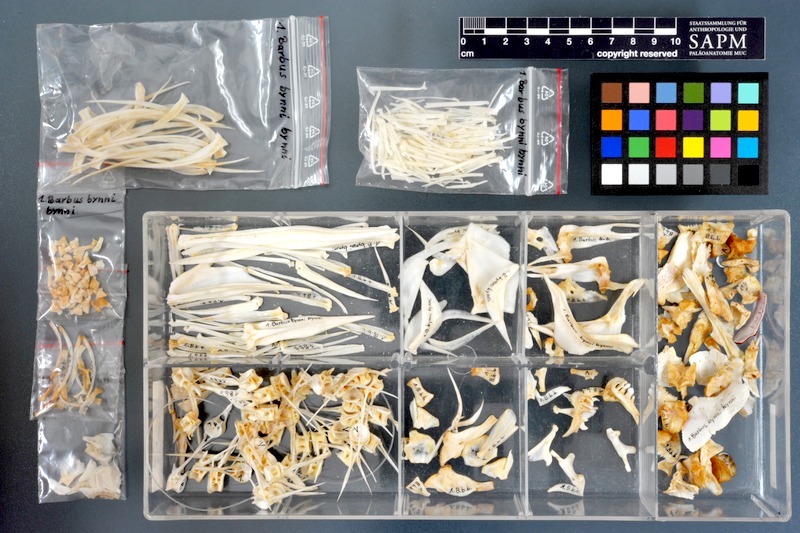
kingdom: Animalia
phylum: Chordata
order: Cypriniformes
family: Cyprinidae
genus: Labeobarbus
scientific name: Labeobarbus bynni
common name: Barbel
